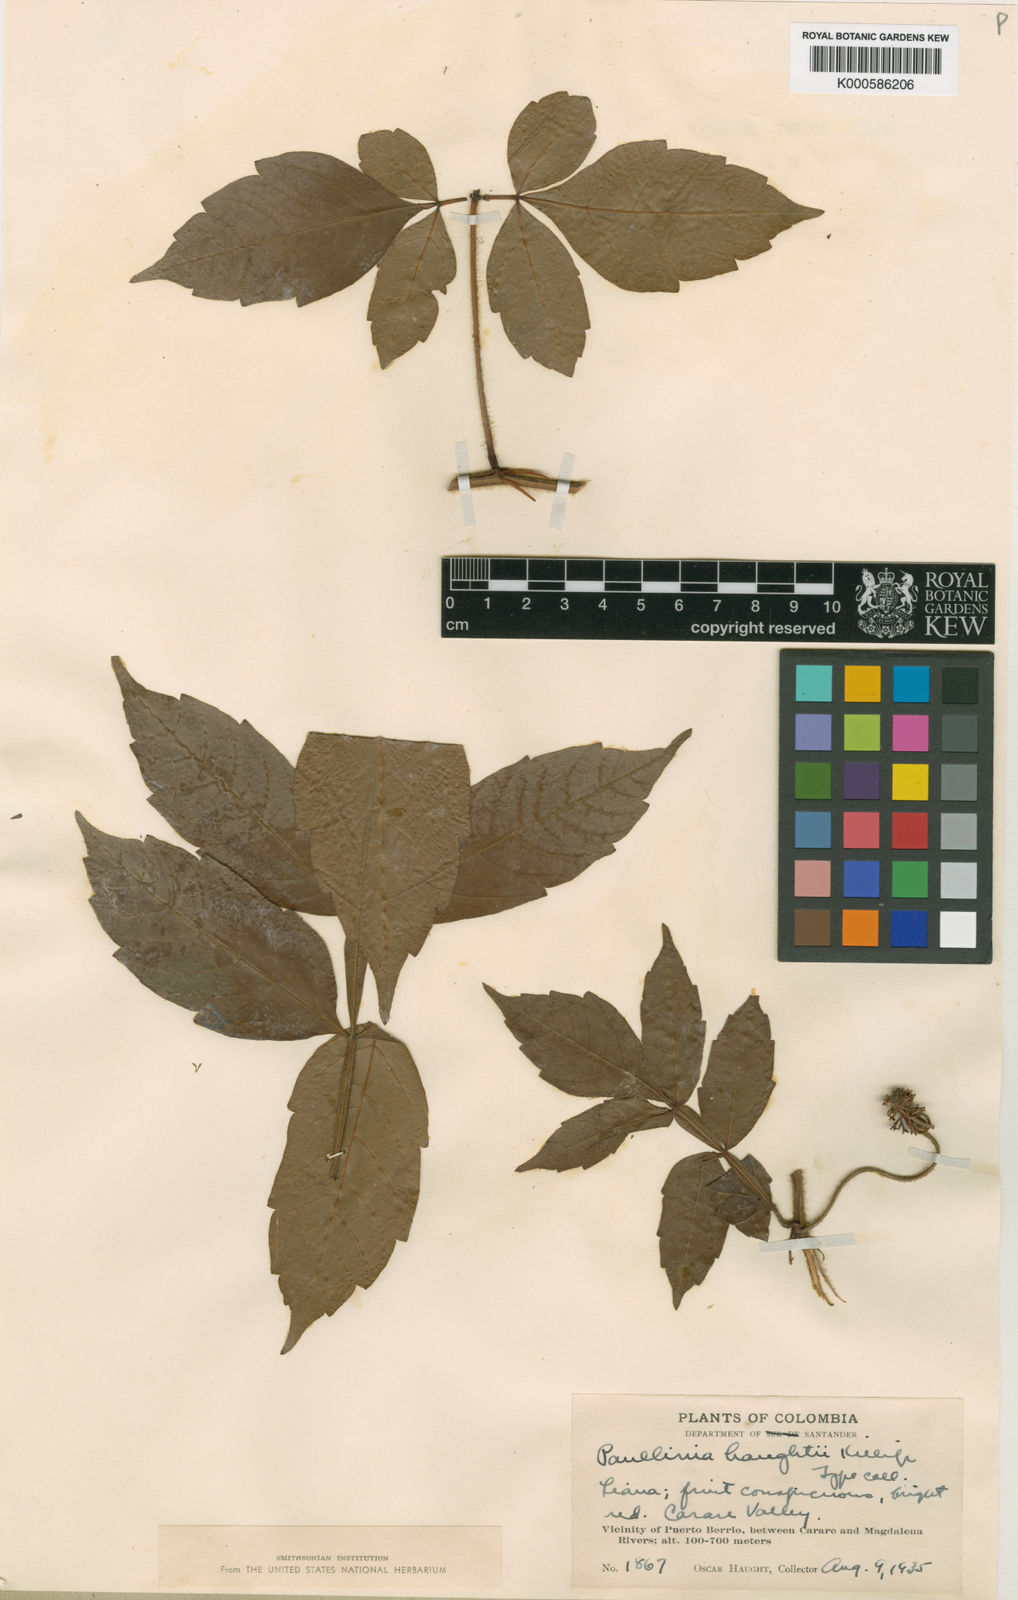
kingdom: Plantae
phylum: Tracheophyta
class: Magnoliopsida
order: Sapindales
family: Sapindaceae
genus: Paullinia
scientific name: Paullinia
